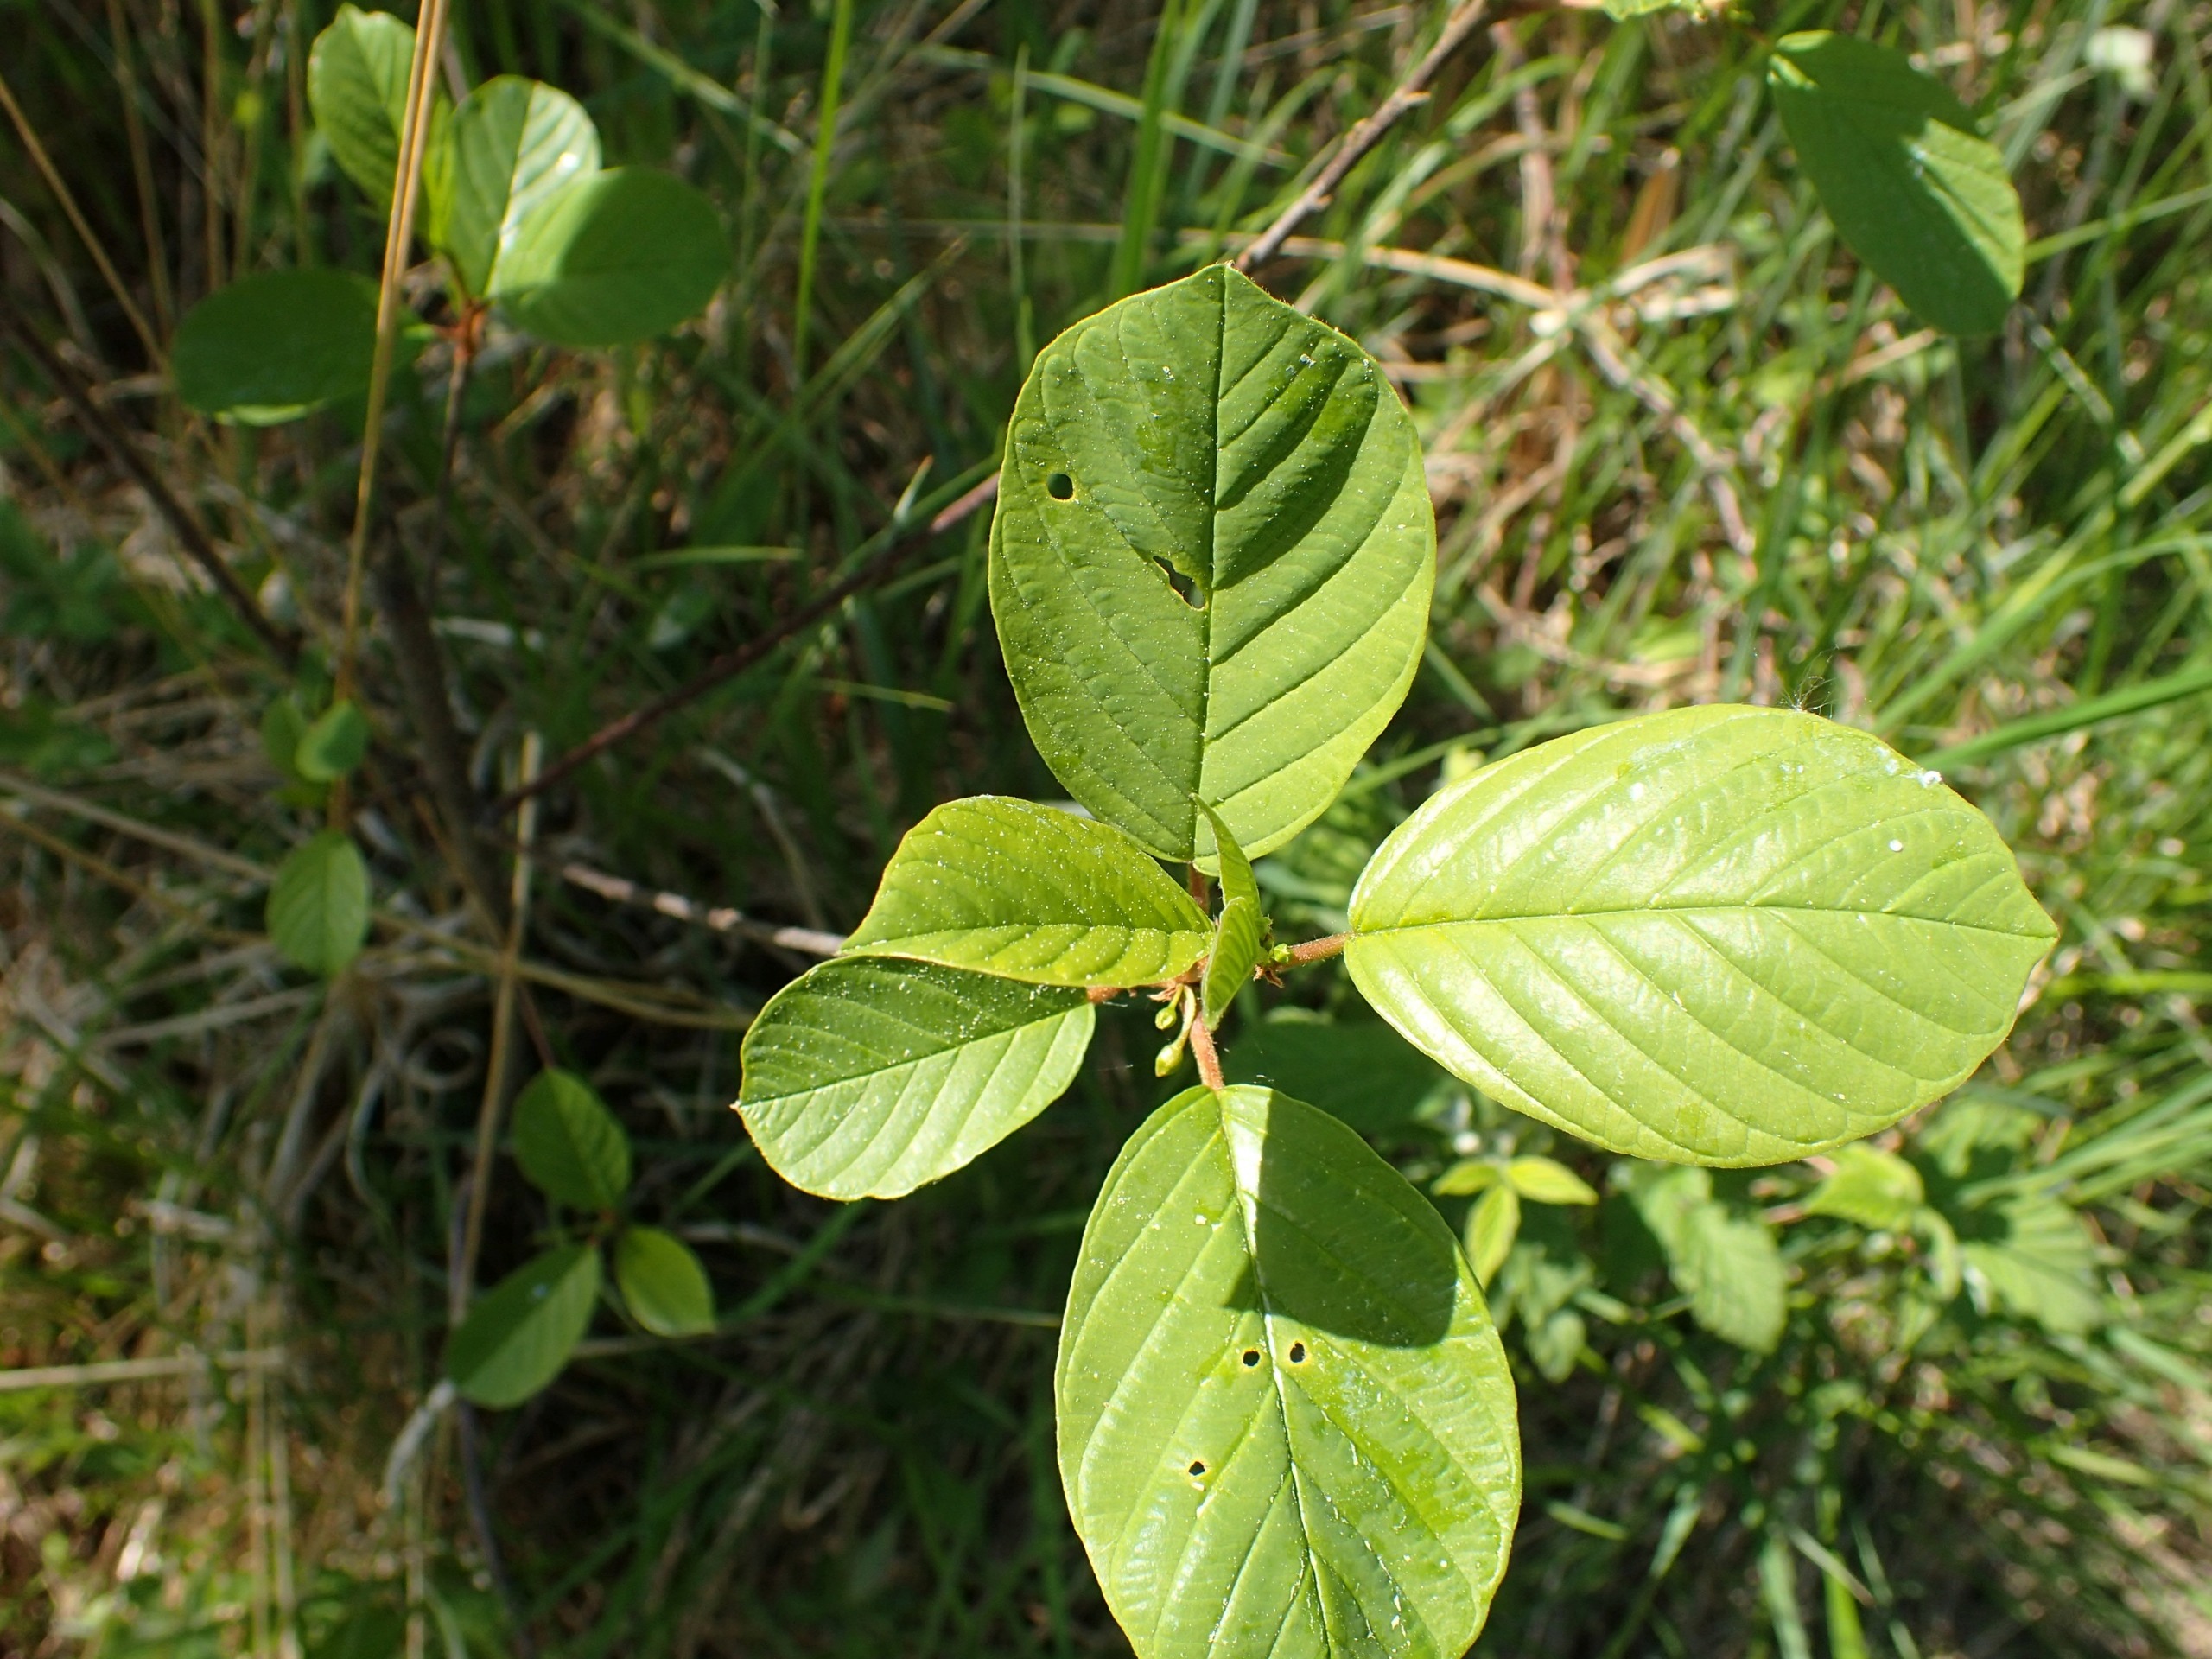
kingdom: Plantae
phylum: Tracheophyta
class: Magnoliopsida
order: Rosales
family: Rhamnaceae
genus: Frangula
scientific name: Frangula alnus
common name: Tørst
